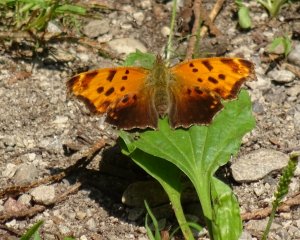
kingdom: Animalia
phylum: Arthropoda
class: Insecta
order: Lepidoptera
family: Nymphalidae
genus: Polygonia
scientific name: Polygonia comma
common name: Eastern Comma
